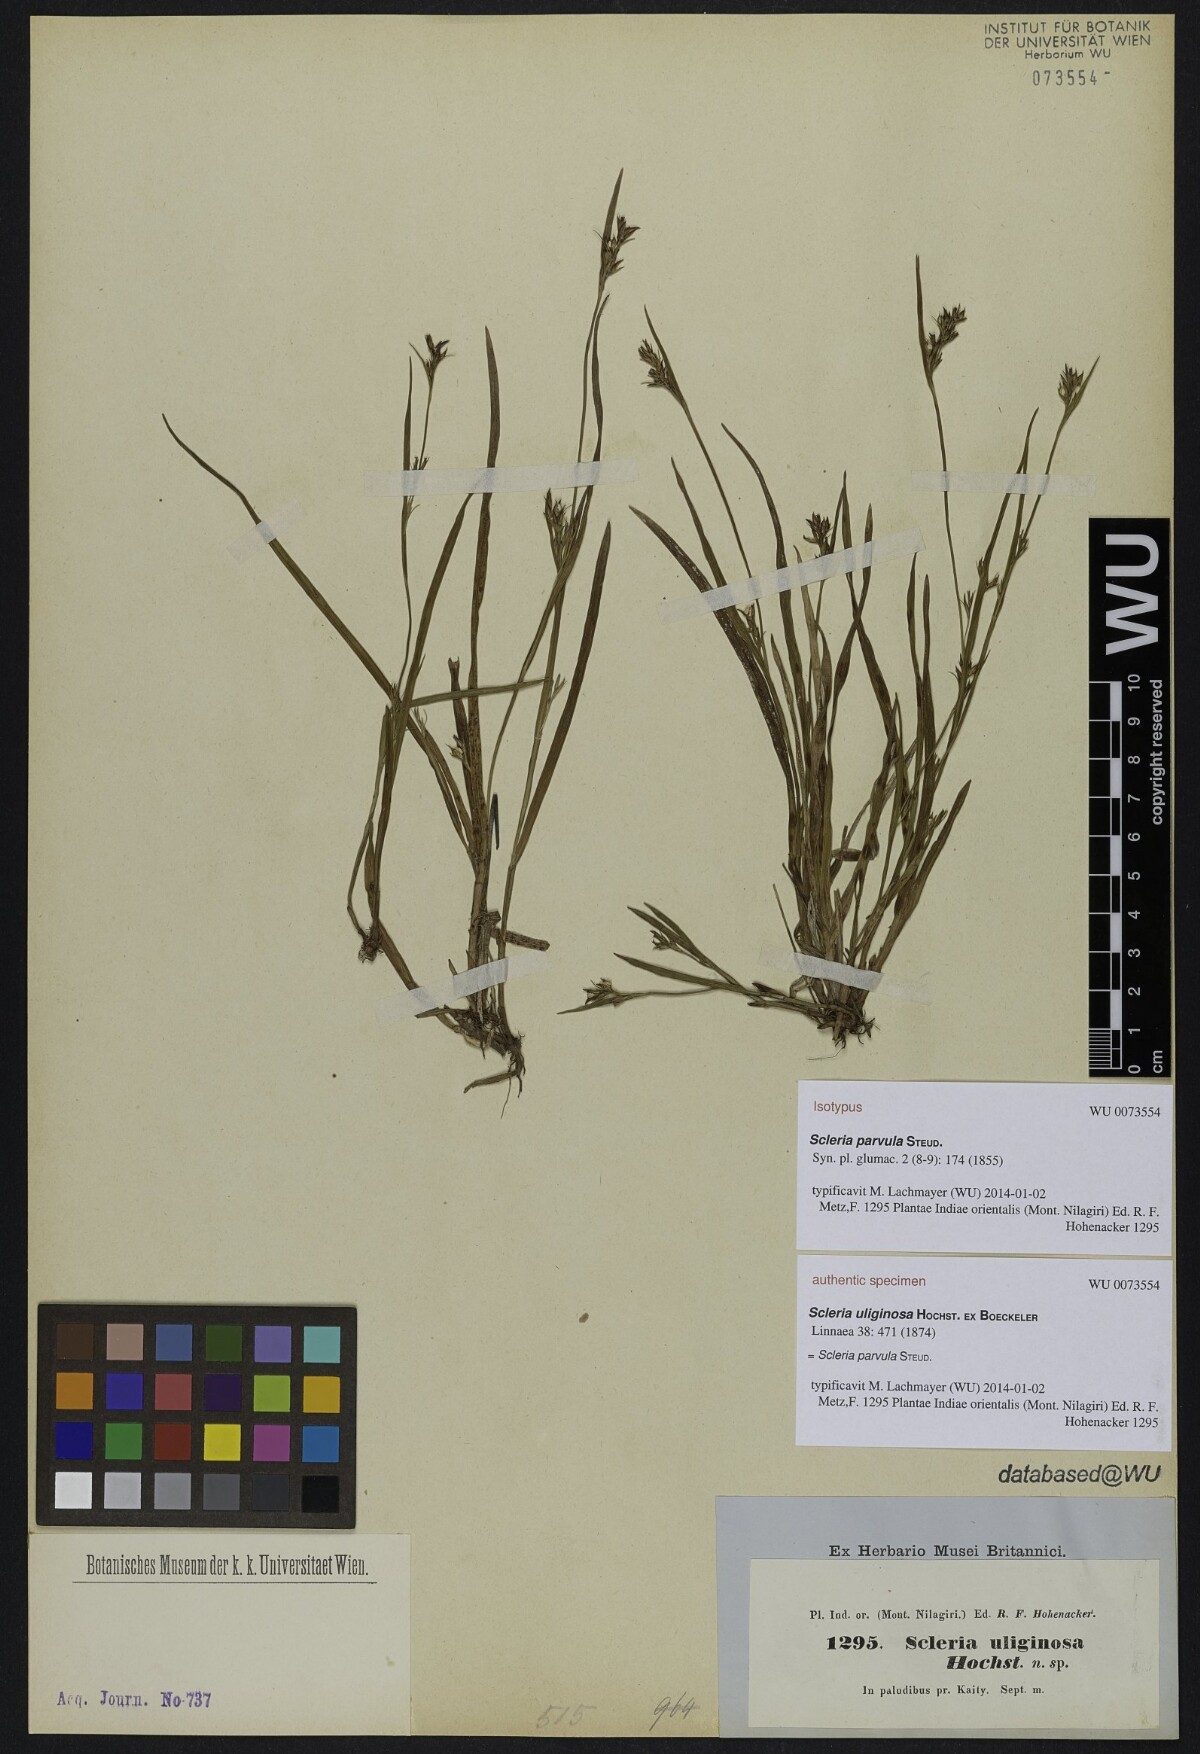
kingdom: Plantae
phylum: Tracheophyta
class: Liliopsida
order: Poales
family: Cyperaceae
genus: Scleria
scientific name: Scleria parvula
